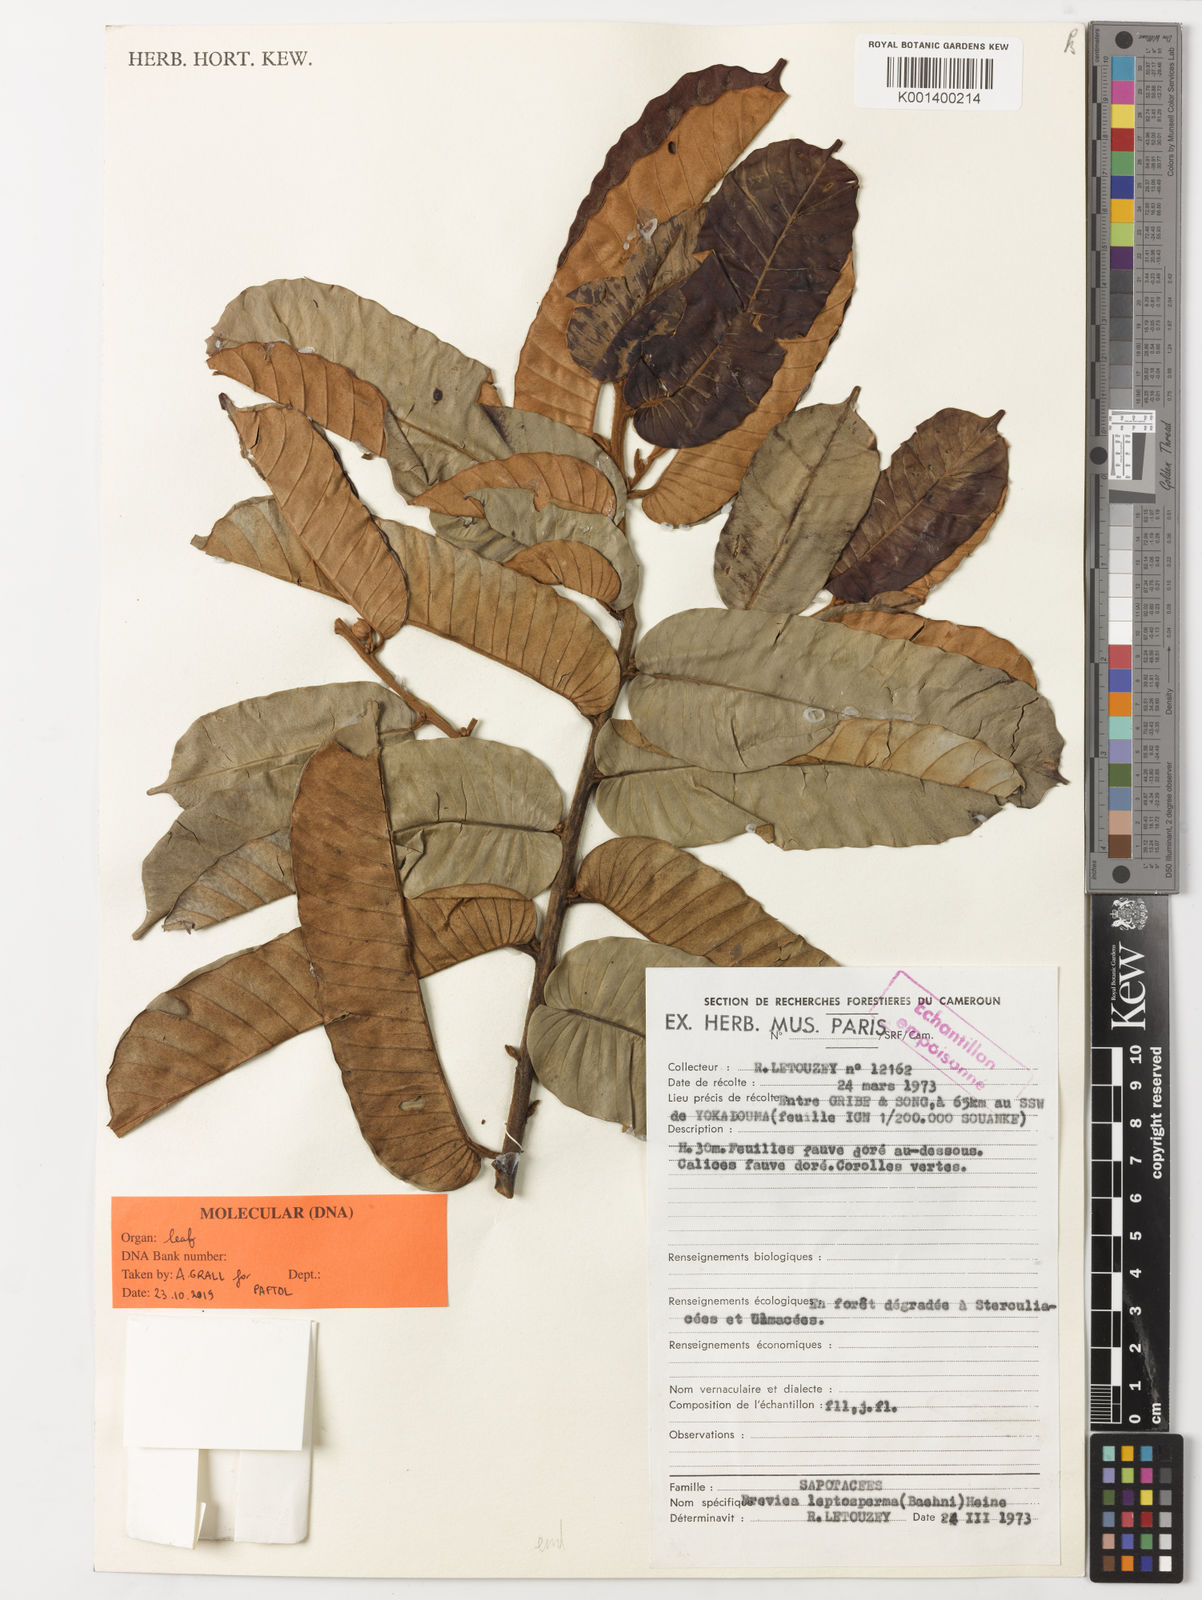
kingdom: Plantae
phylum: Tracheophyta
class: Magnoliopsida
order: Ericales
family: Sapotaceae
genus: Breviea
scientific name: Breviea sericea
